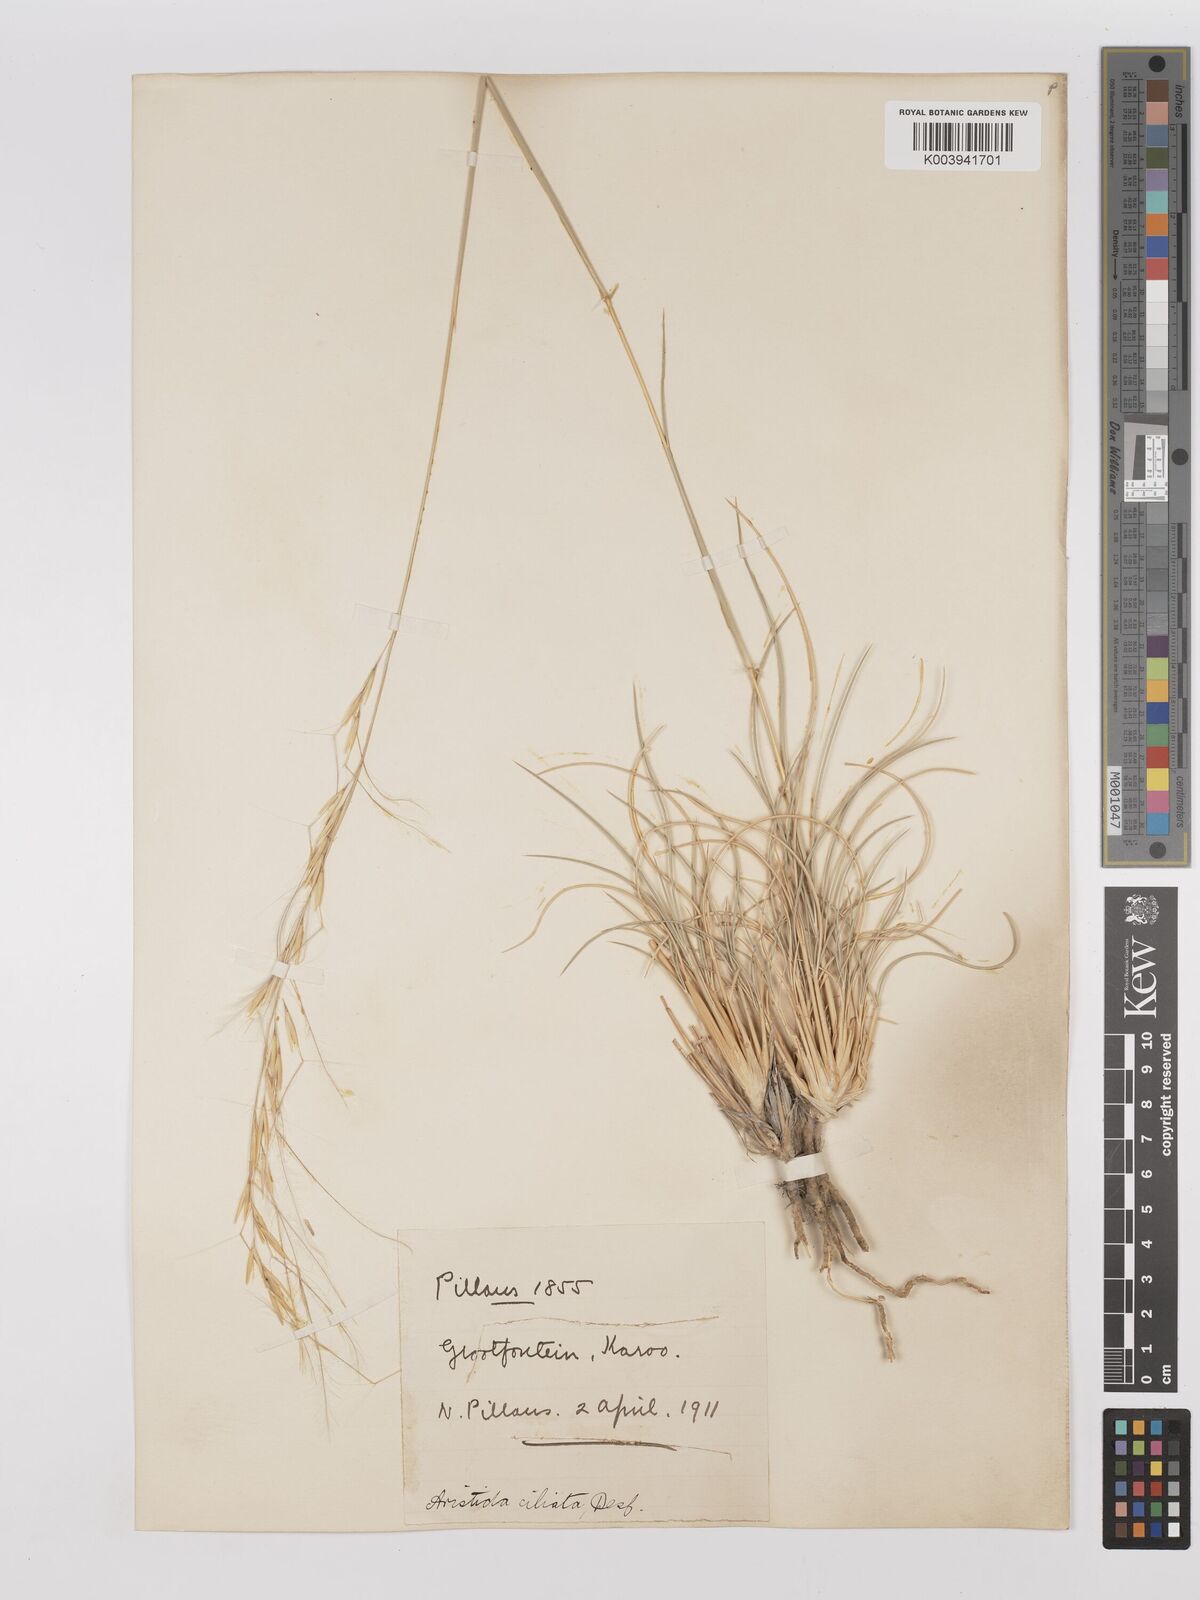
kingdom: Plantae
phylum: Tracheophyta
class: Liliopsida
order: Poales
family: Poaceae
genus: Stipagrostis
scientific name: Stipagrostis ciliata
